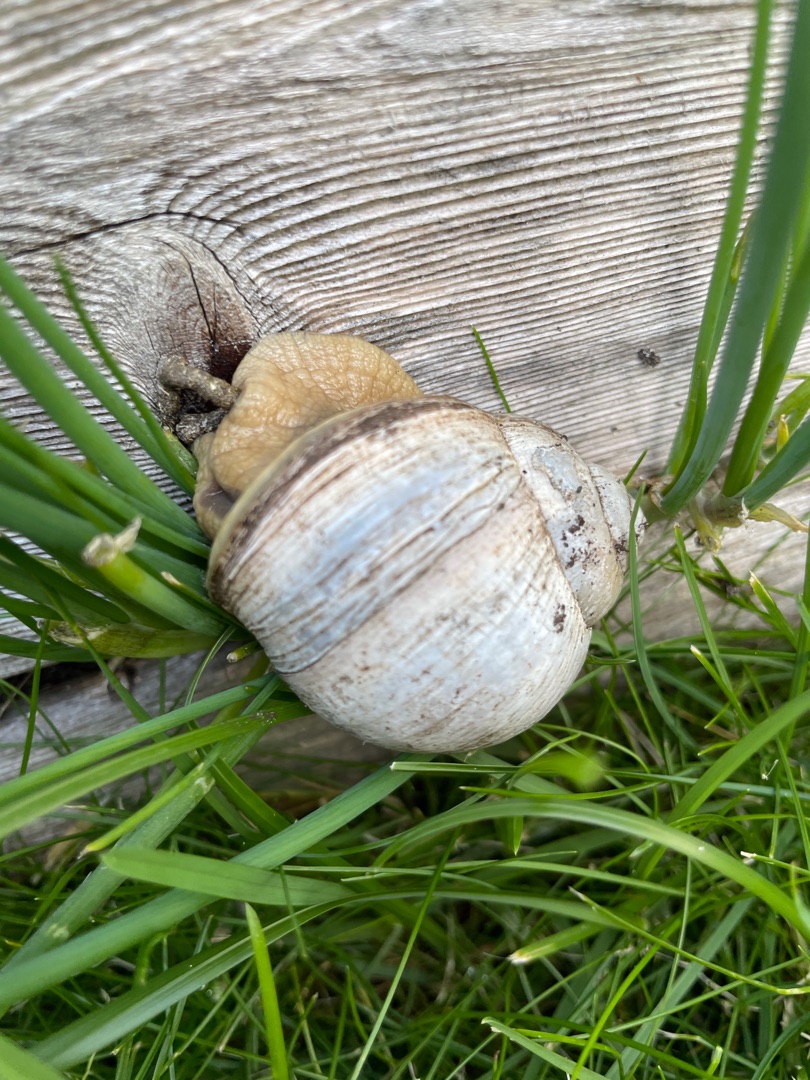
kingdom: Animalia
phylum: Mollusca
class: Gastropoda
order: Stylommatophora
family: Helicidae
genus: Helix
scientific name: Helix pomatia
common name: Vinbjergsnegl
